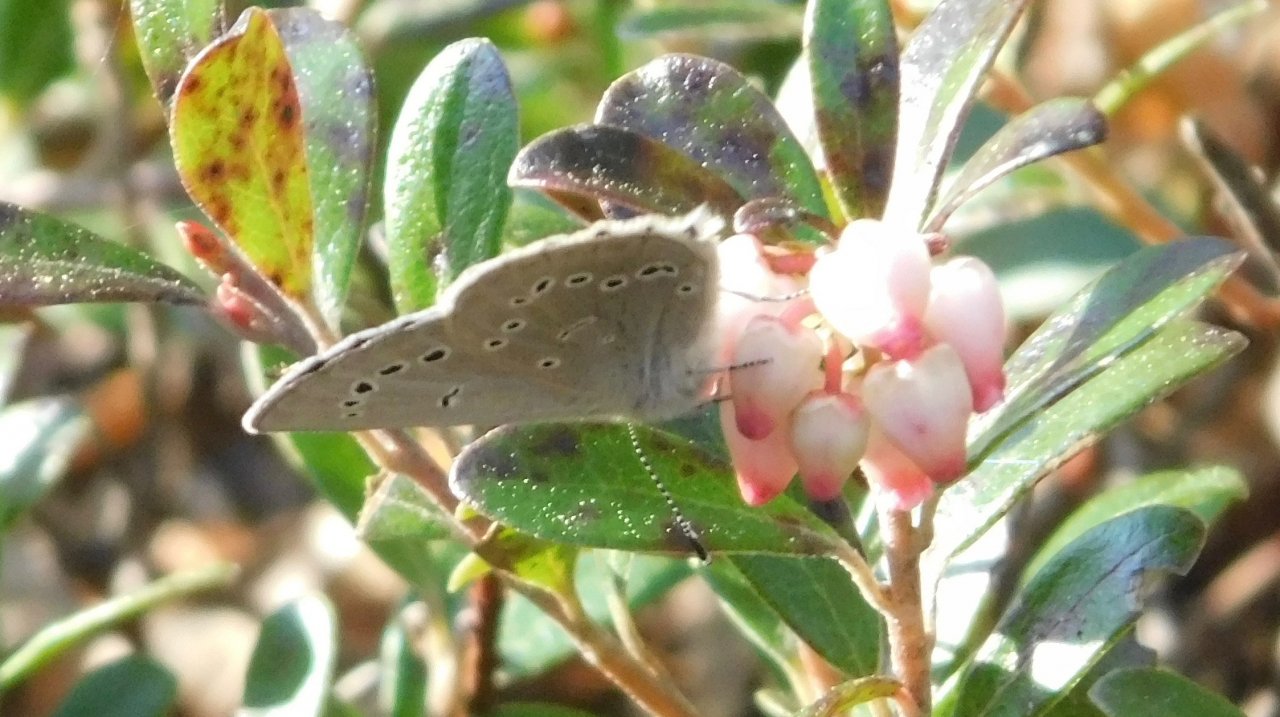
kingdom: Animalia
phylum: Arthropoda
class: Insecta
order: Lepidoptera
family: Lycaenidae
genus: Glaucopsyche
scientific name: Glaucopsyche lygdamus
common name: Silvery Blue
